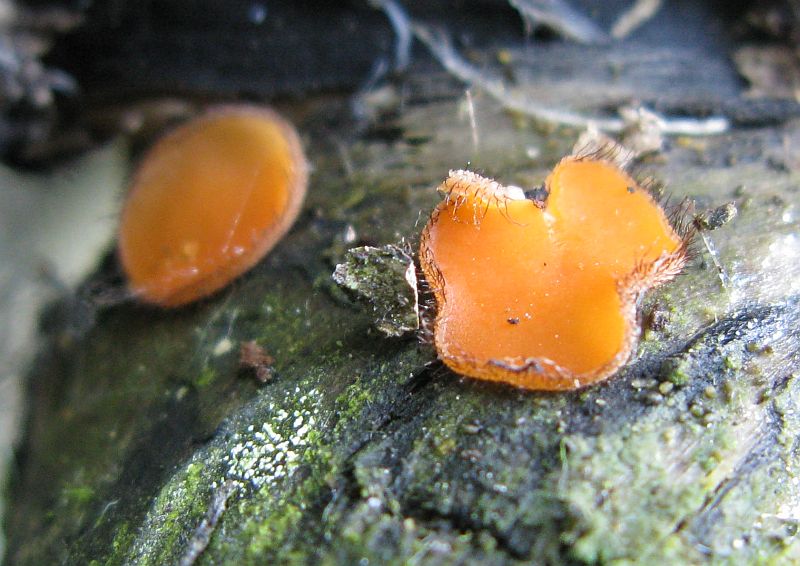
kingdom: Fungi
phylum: Ascomycota
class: Pezizomycetes
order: Pezizales
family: Pyronemataceae
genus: Scutellinia
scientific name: Scutellinia scutellata
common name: frynset skjoldbæger
